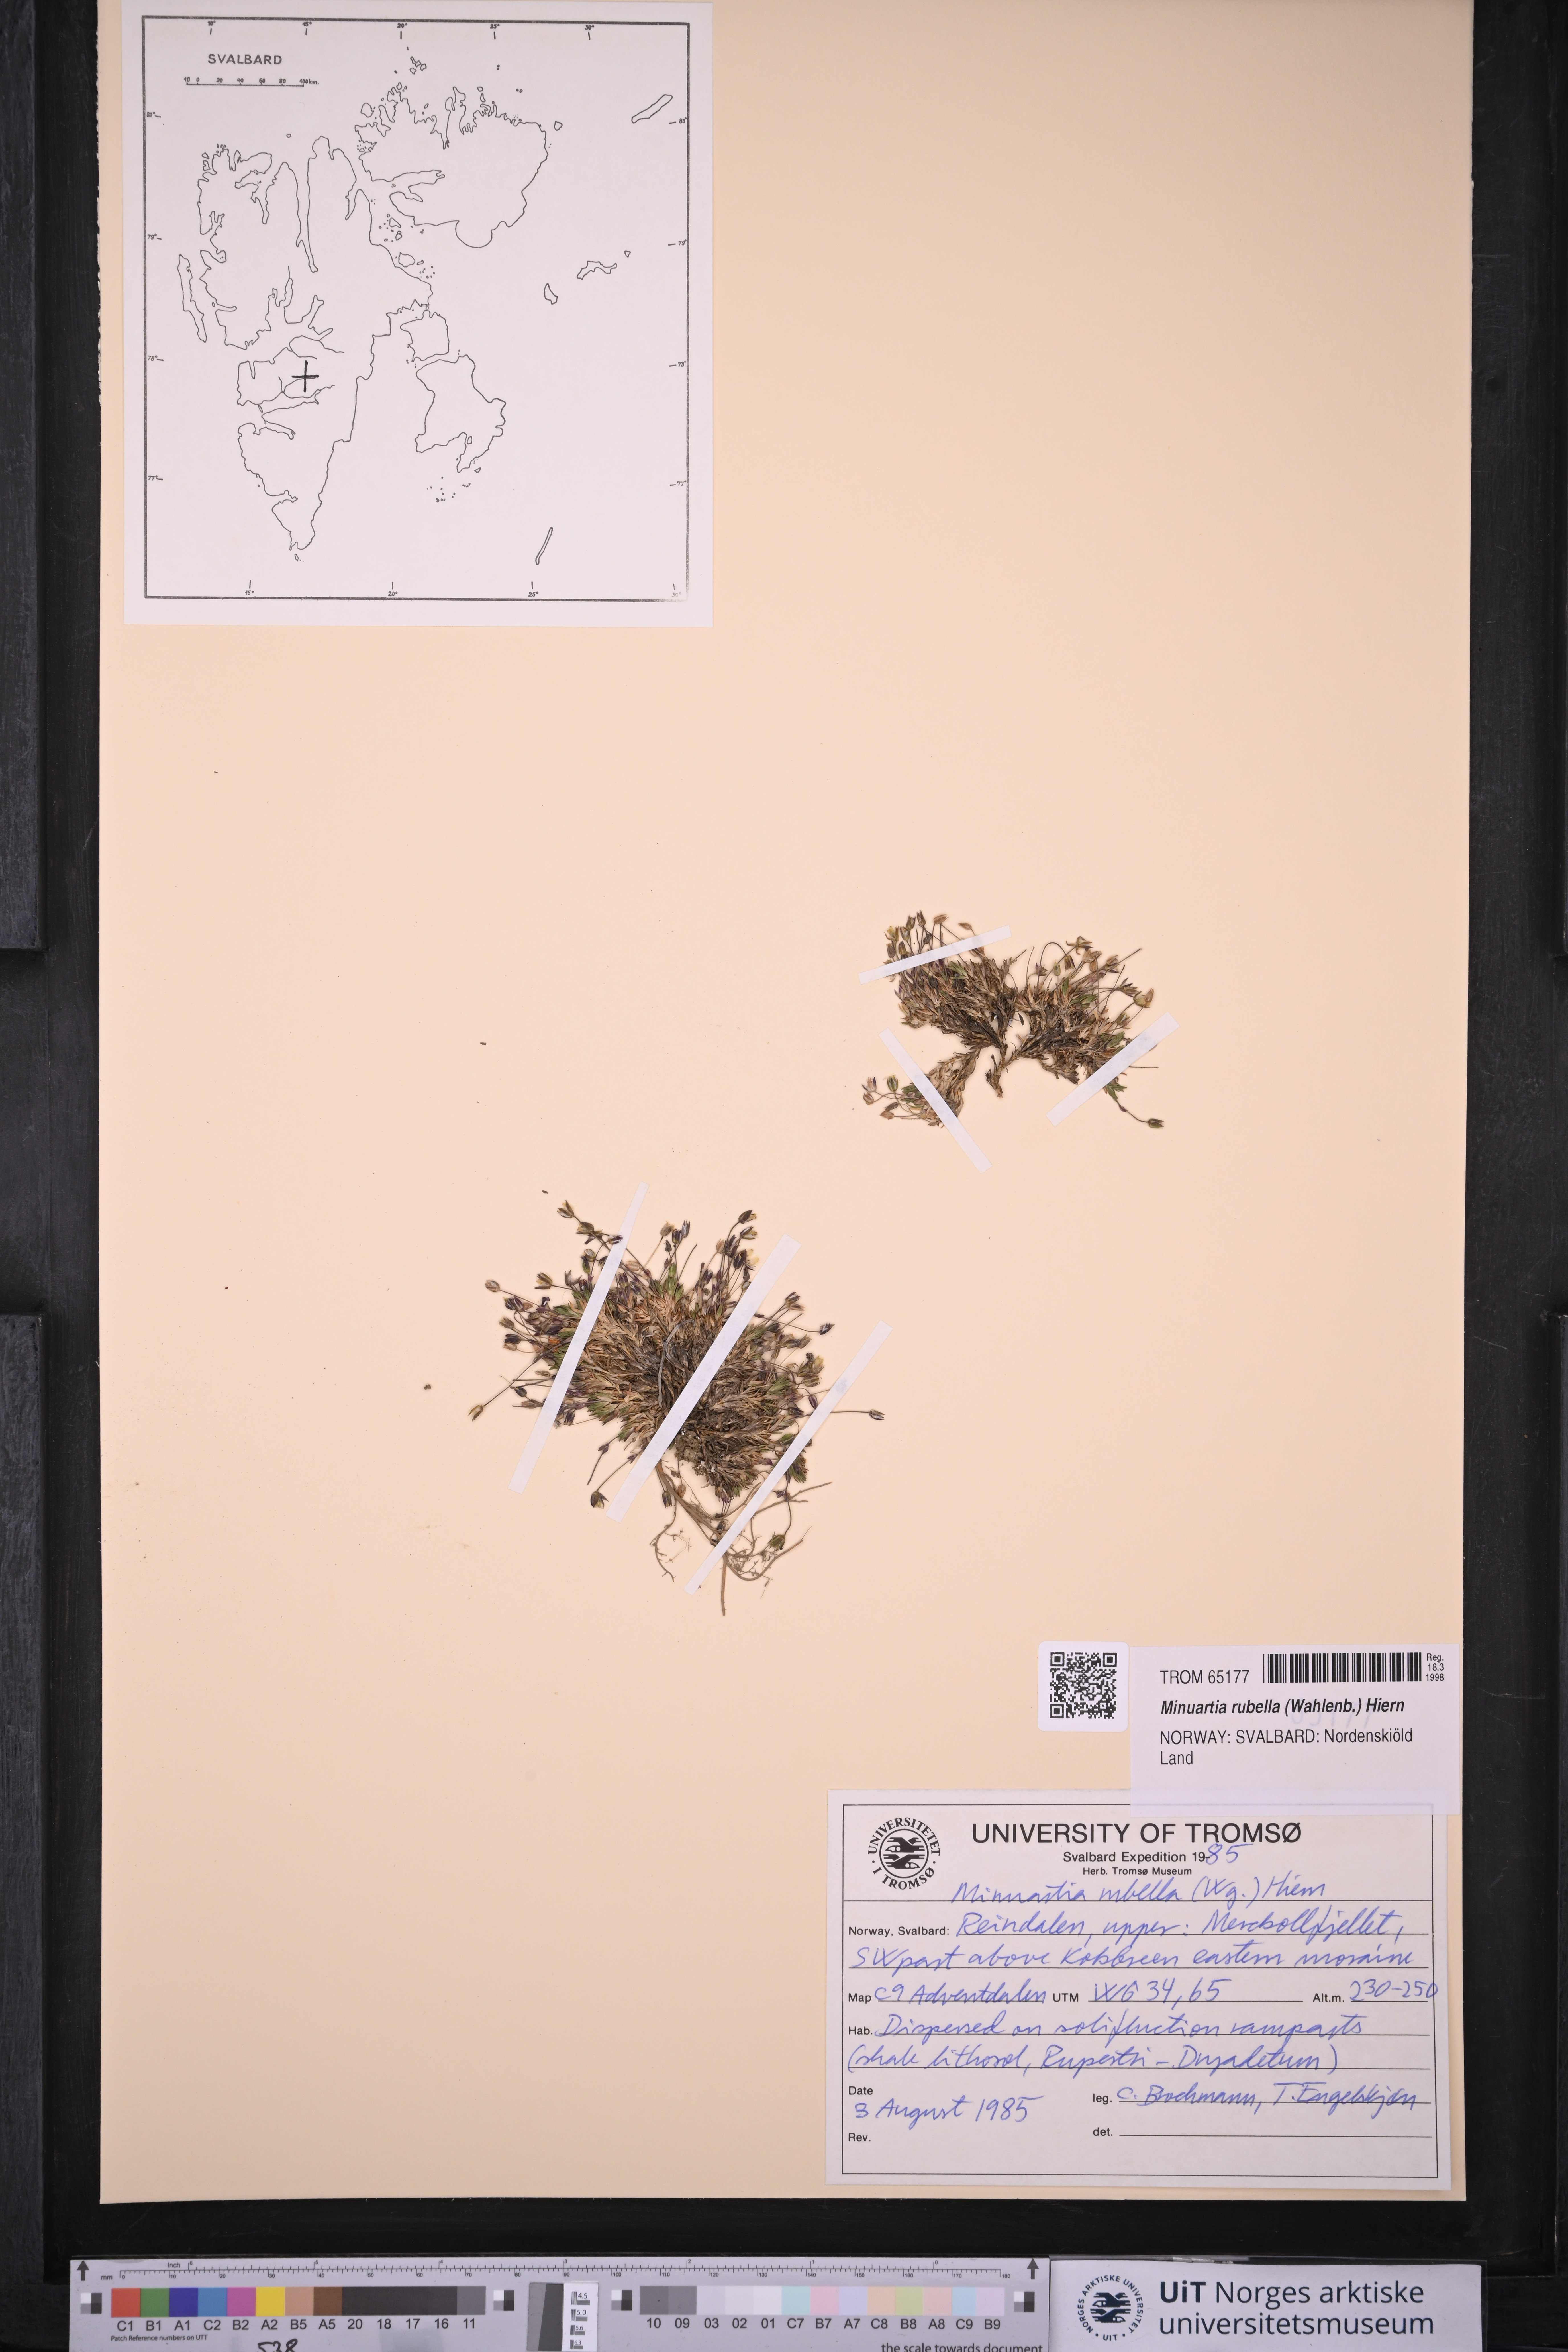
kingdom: Plantae
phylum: Tracheophyta
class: Magnoliopsida
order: Caryophyllales
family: Caryophyllaceae
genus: Sabulina
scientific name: Sabulina rubella
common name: Beautiful sandwort
